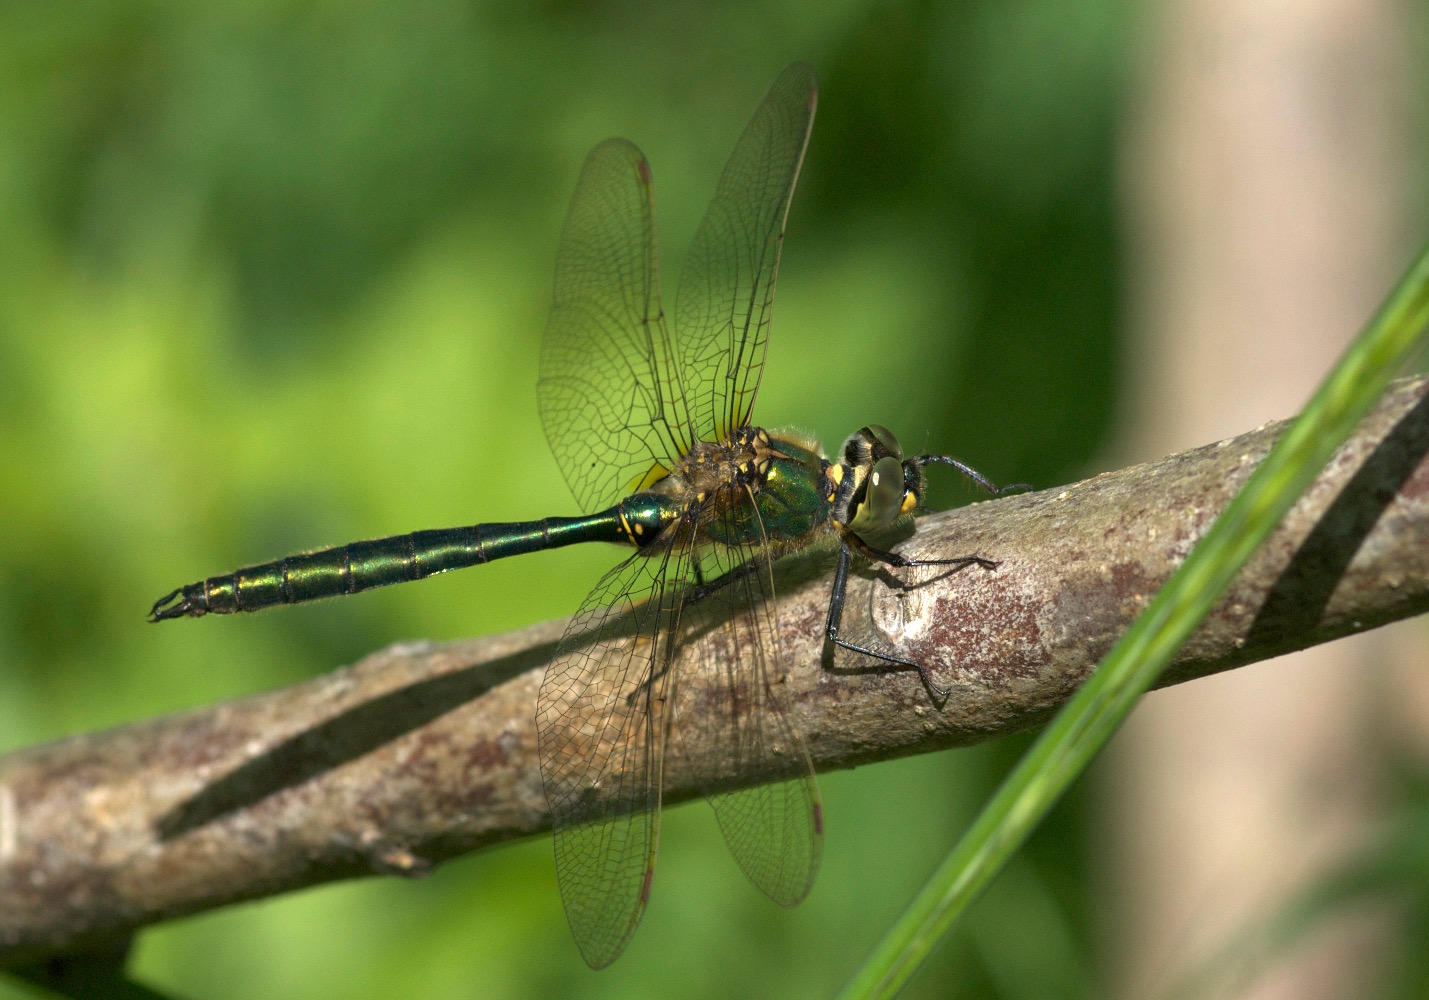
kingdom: Animalia
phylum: Arthropoda
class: Insecta
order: Odonata
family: Corduliidae
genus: Somatochlora
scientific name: Somatochlora metallica
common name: Glinsende smaragdlibel
